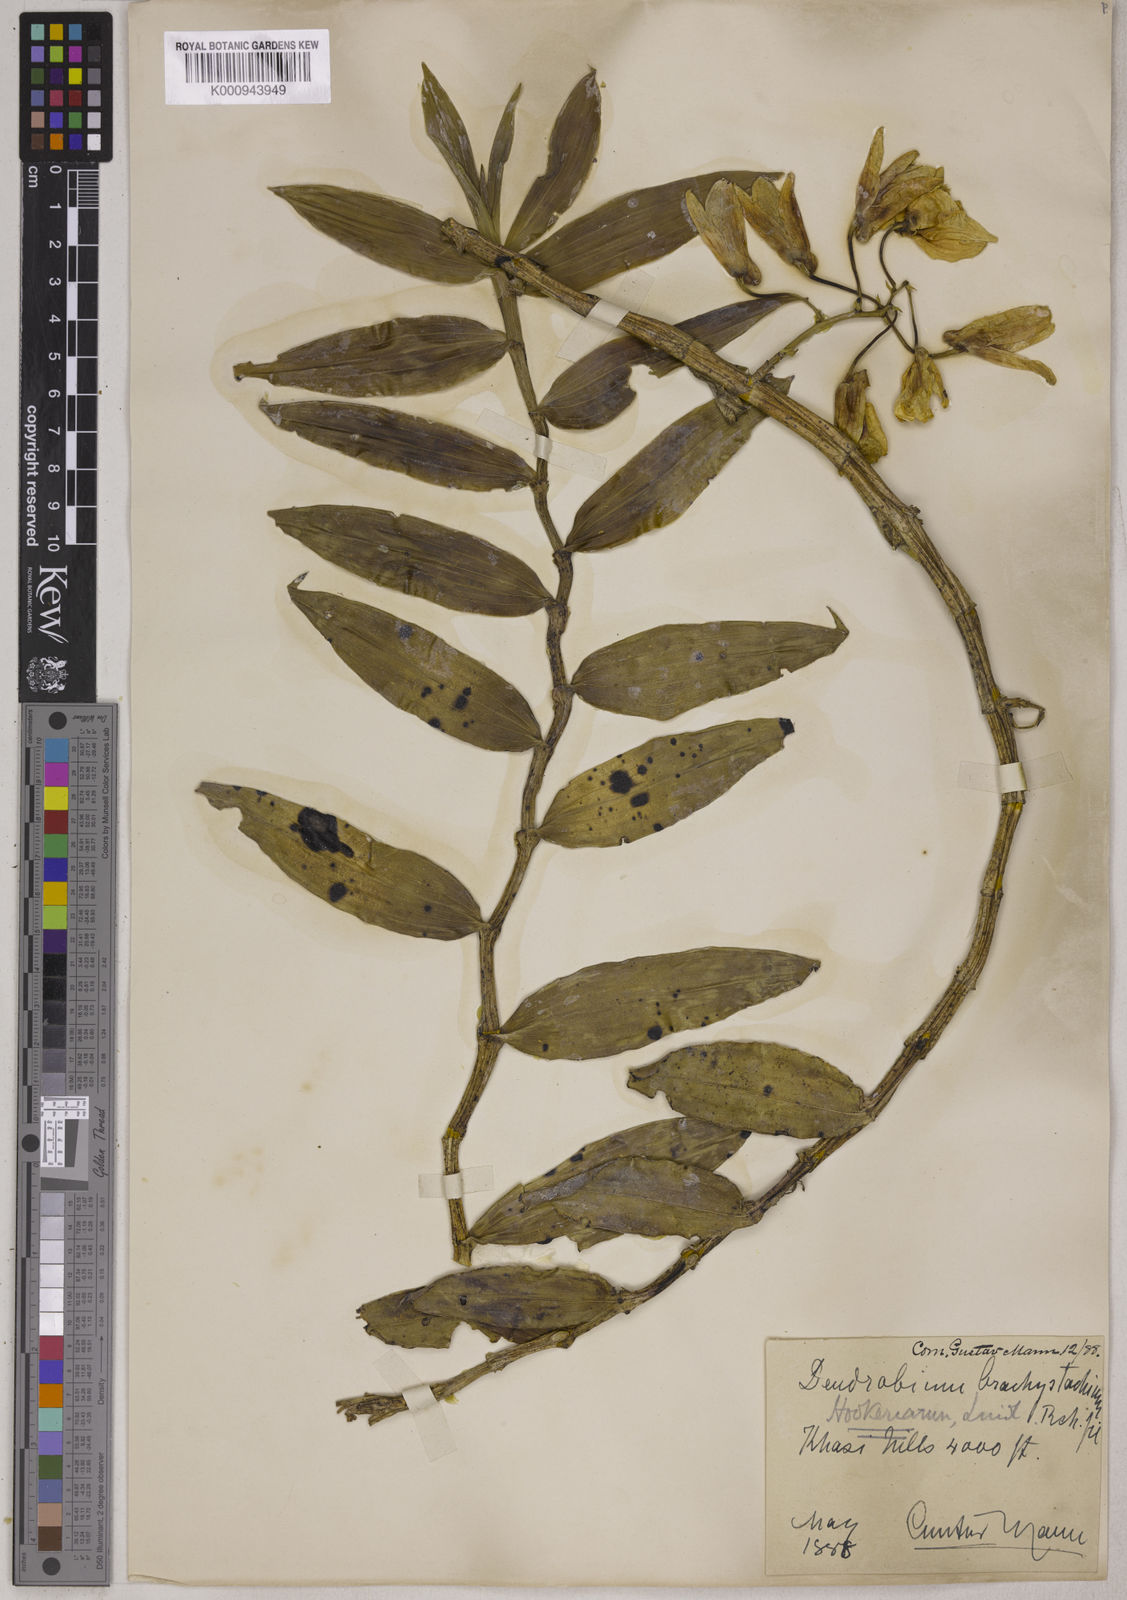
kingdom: Plantae
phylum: Tracheophyta
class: Liliopsida
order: Asparagales
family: Orchidaceae
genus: Dendrobium
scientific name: Dendrobium hookerianum
